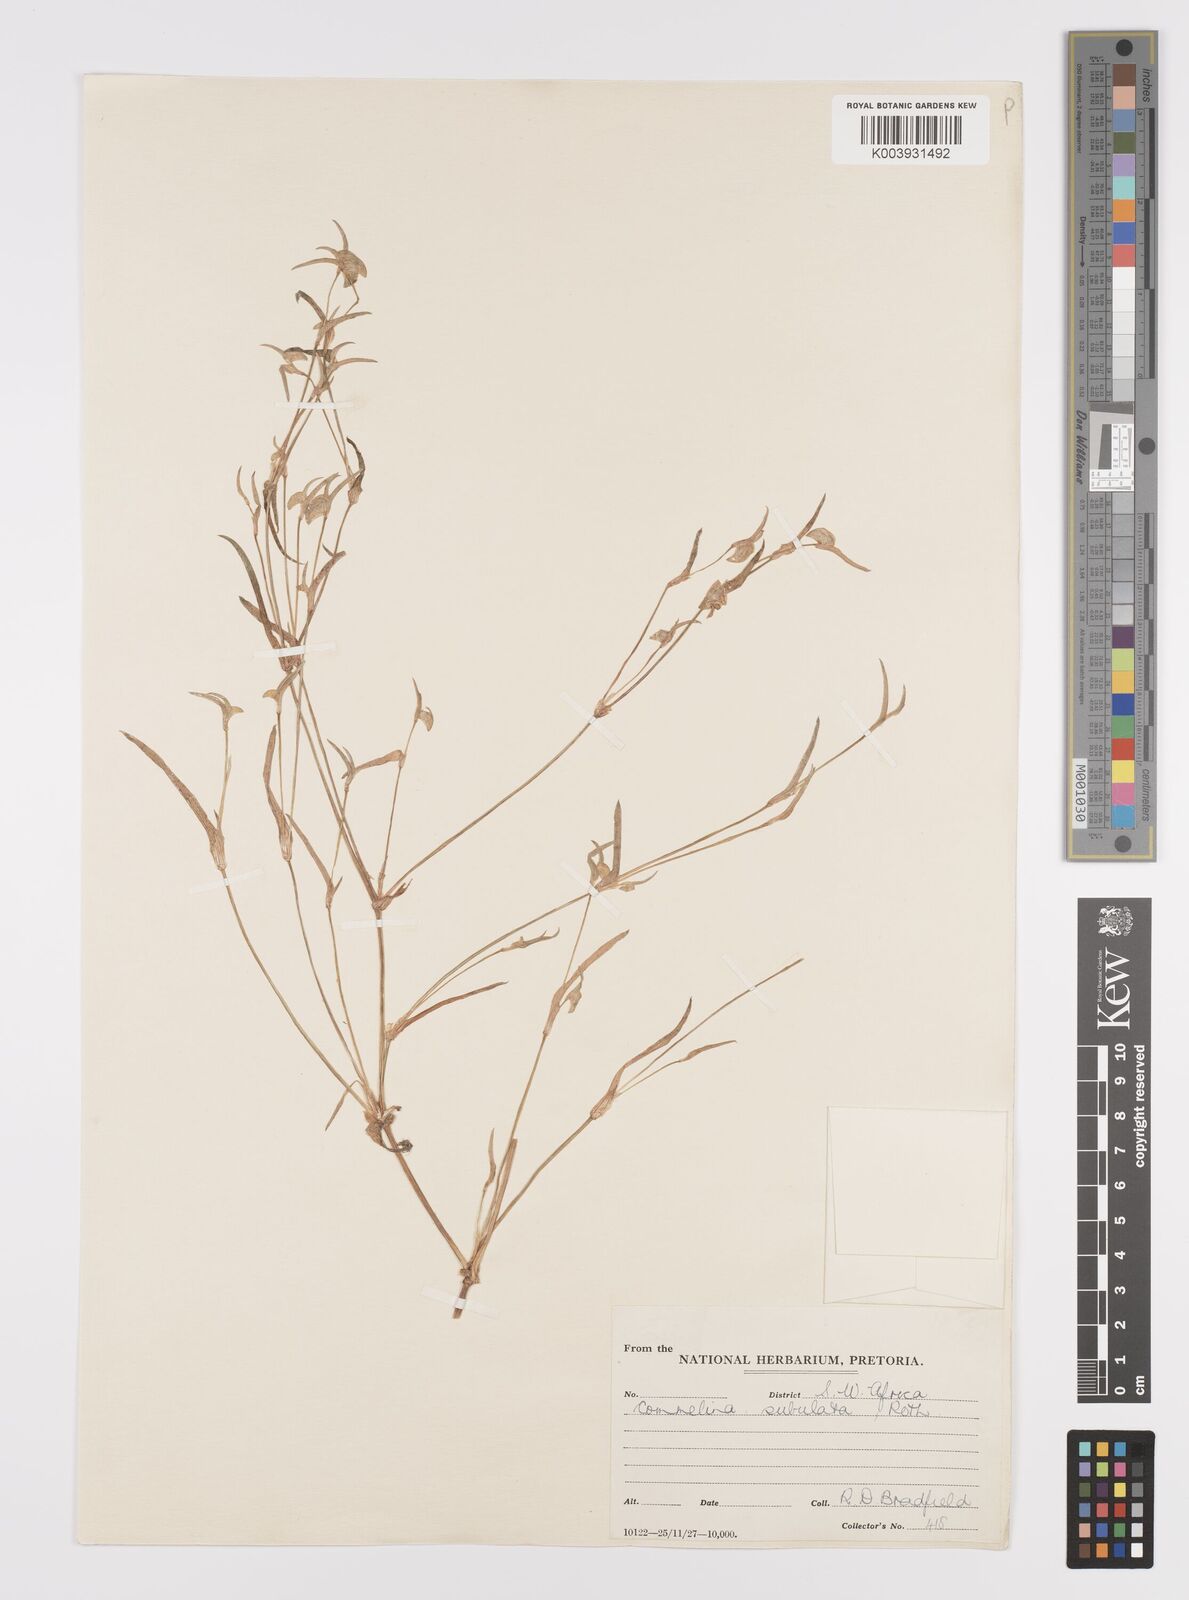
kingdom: Plantae
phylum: Tracheophyta
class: Liliopsida
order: Commelinales
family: Commelinaceae
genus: Commelina
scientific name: Commelina subulata
